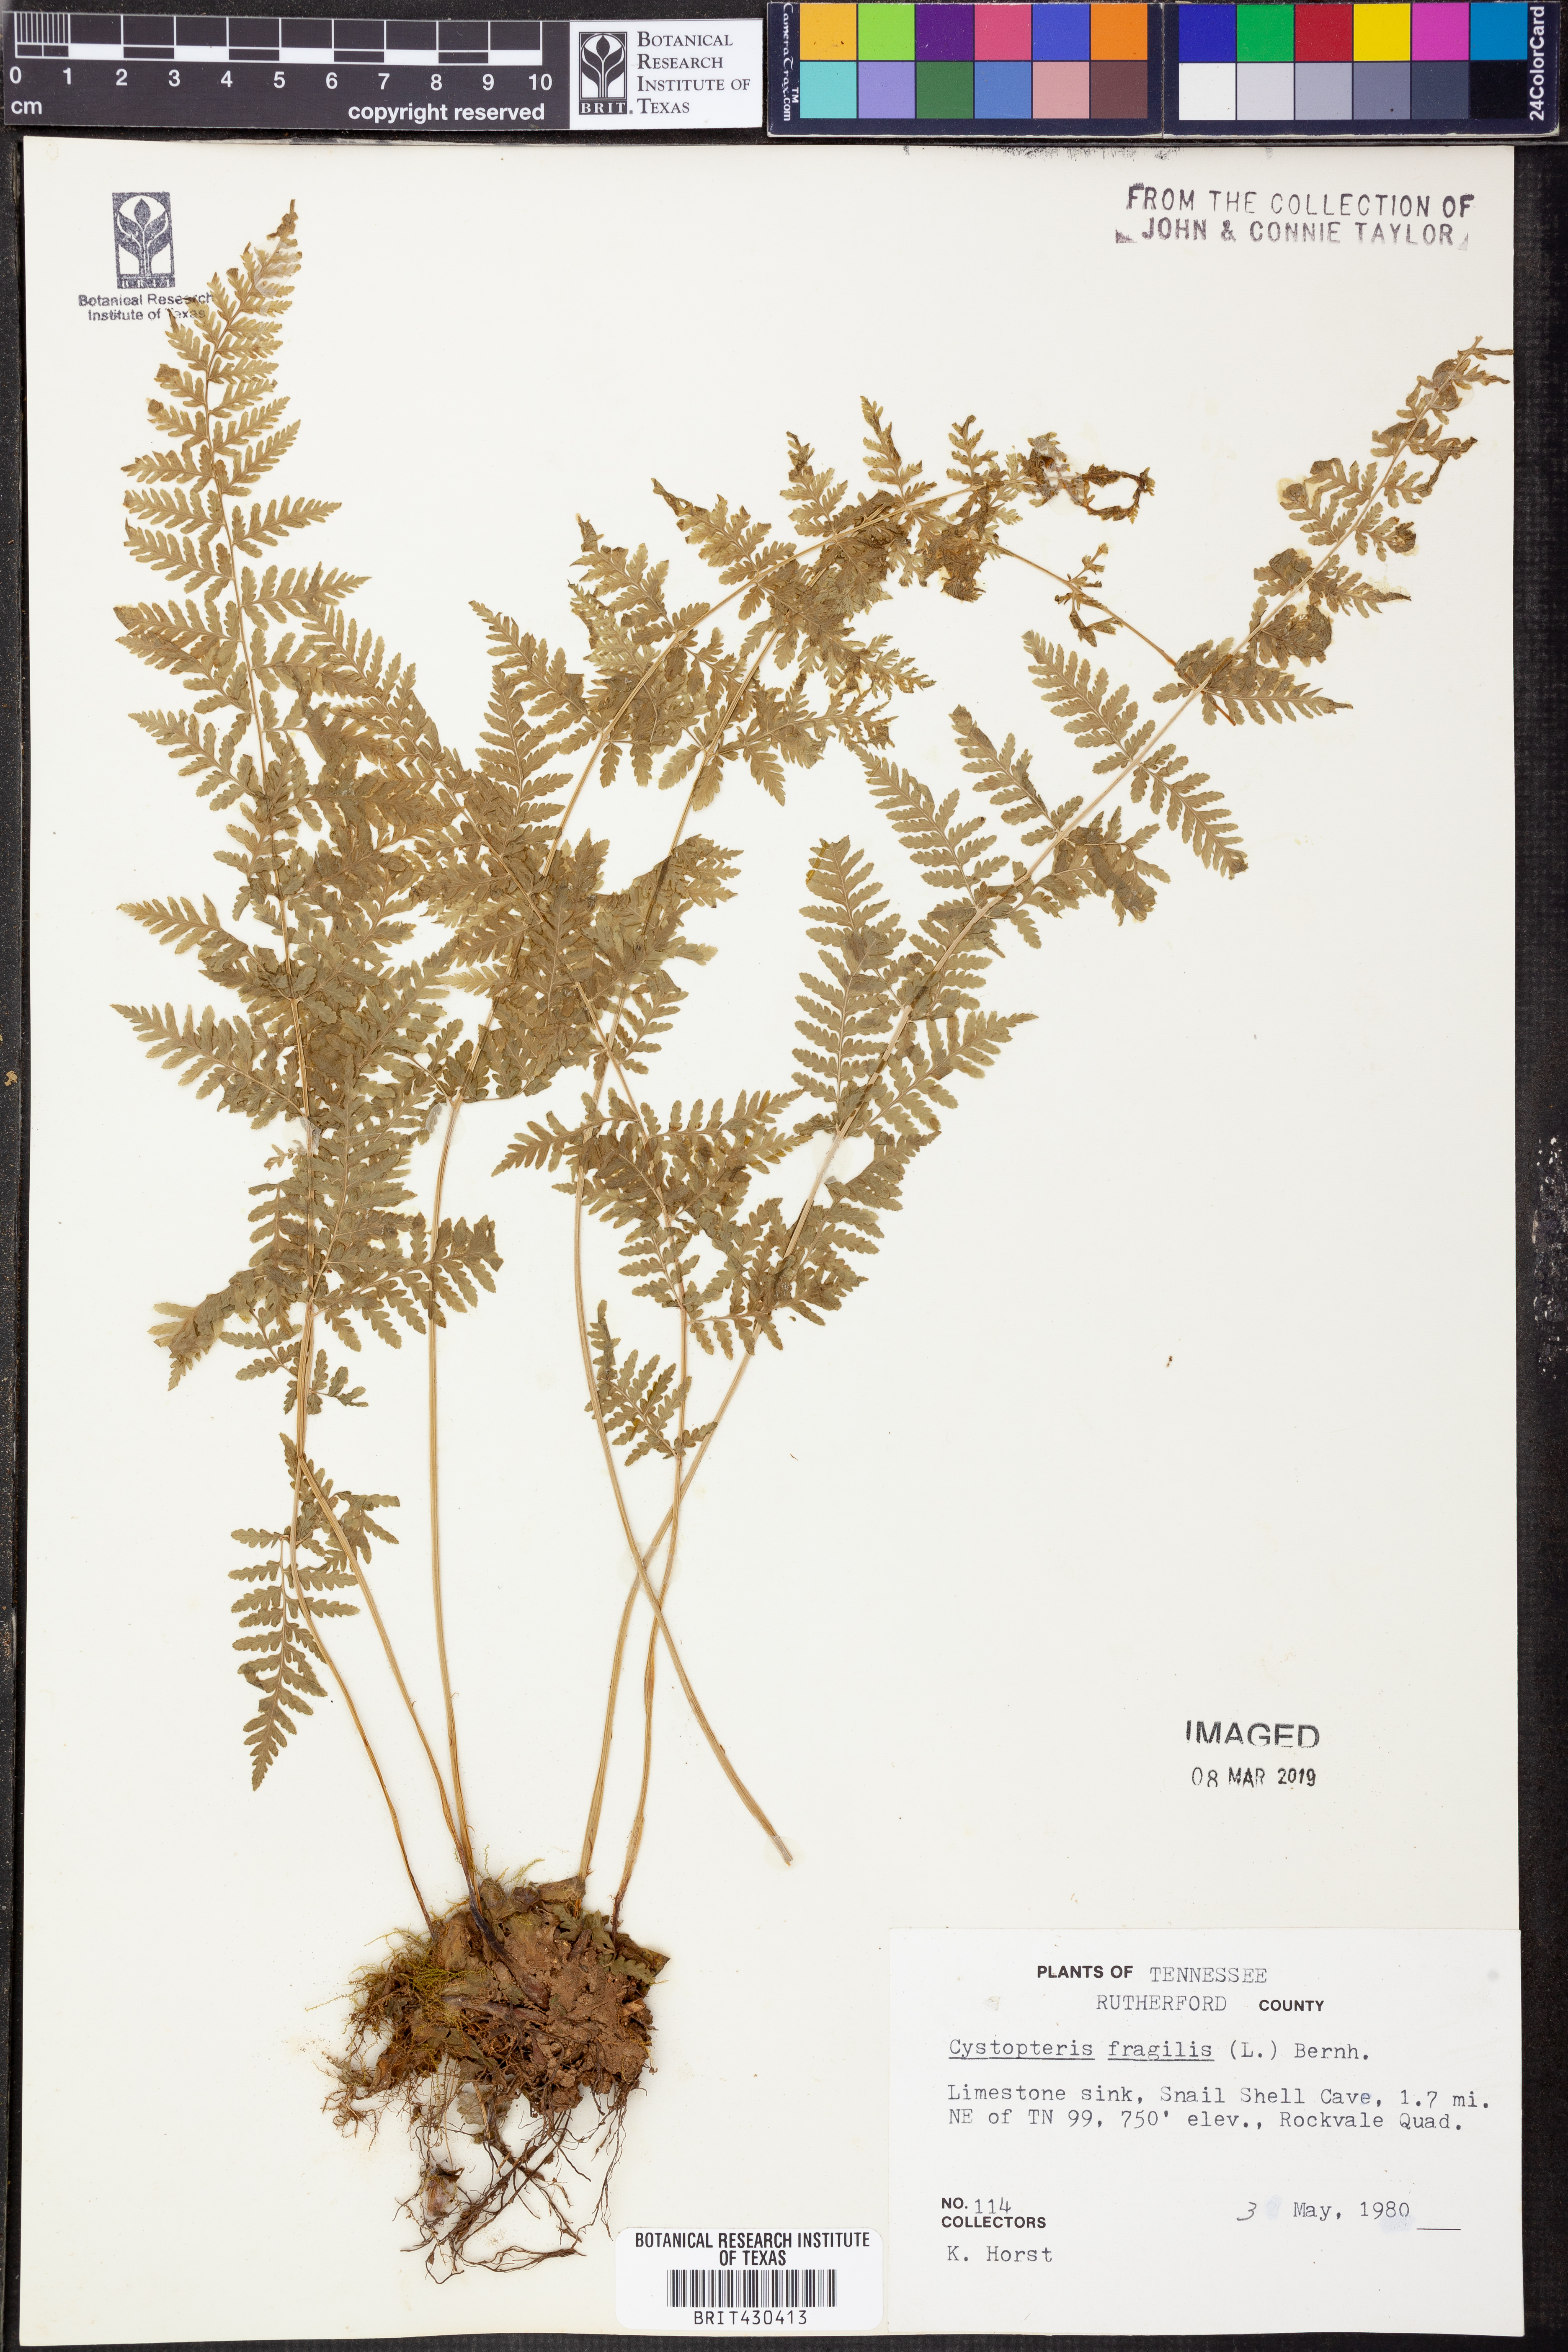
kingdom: Plantae
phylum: Tracheophyta
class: Polypodiopsida
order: Polypodiales
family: Cystopteridaceae
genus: Cystopteris
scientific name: Cystopteris fragilis
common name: Brittle bladder fern
